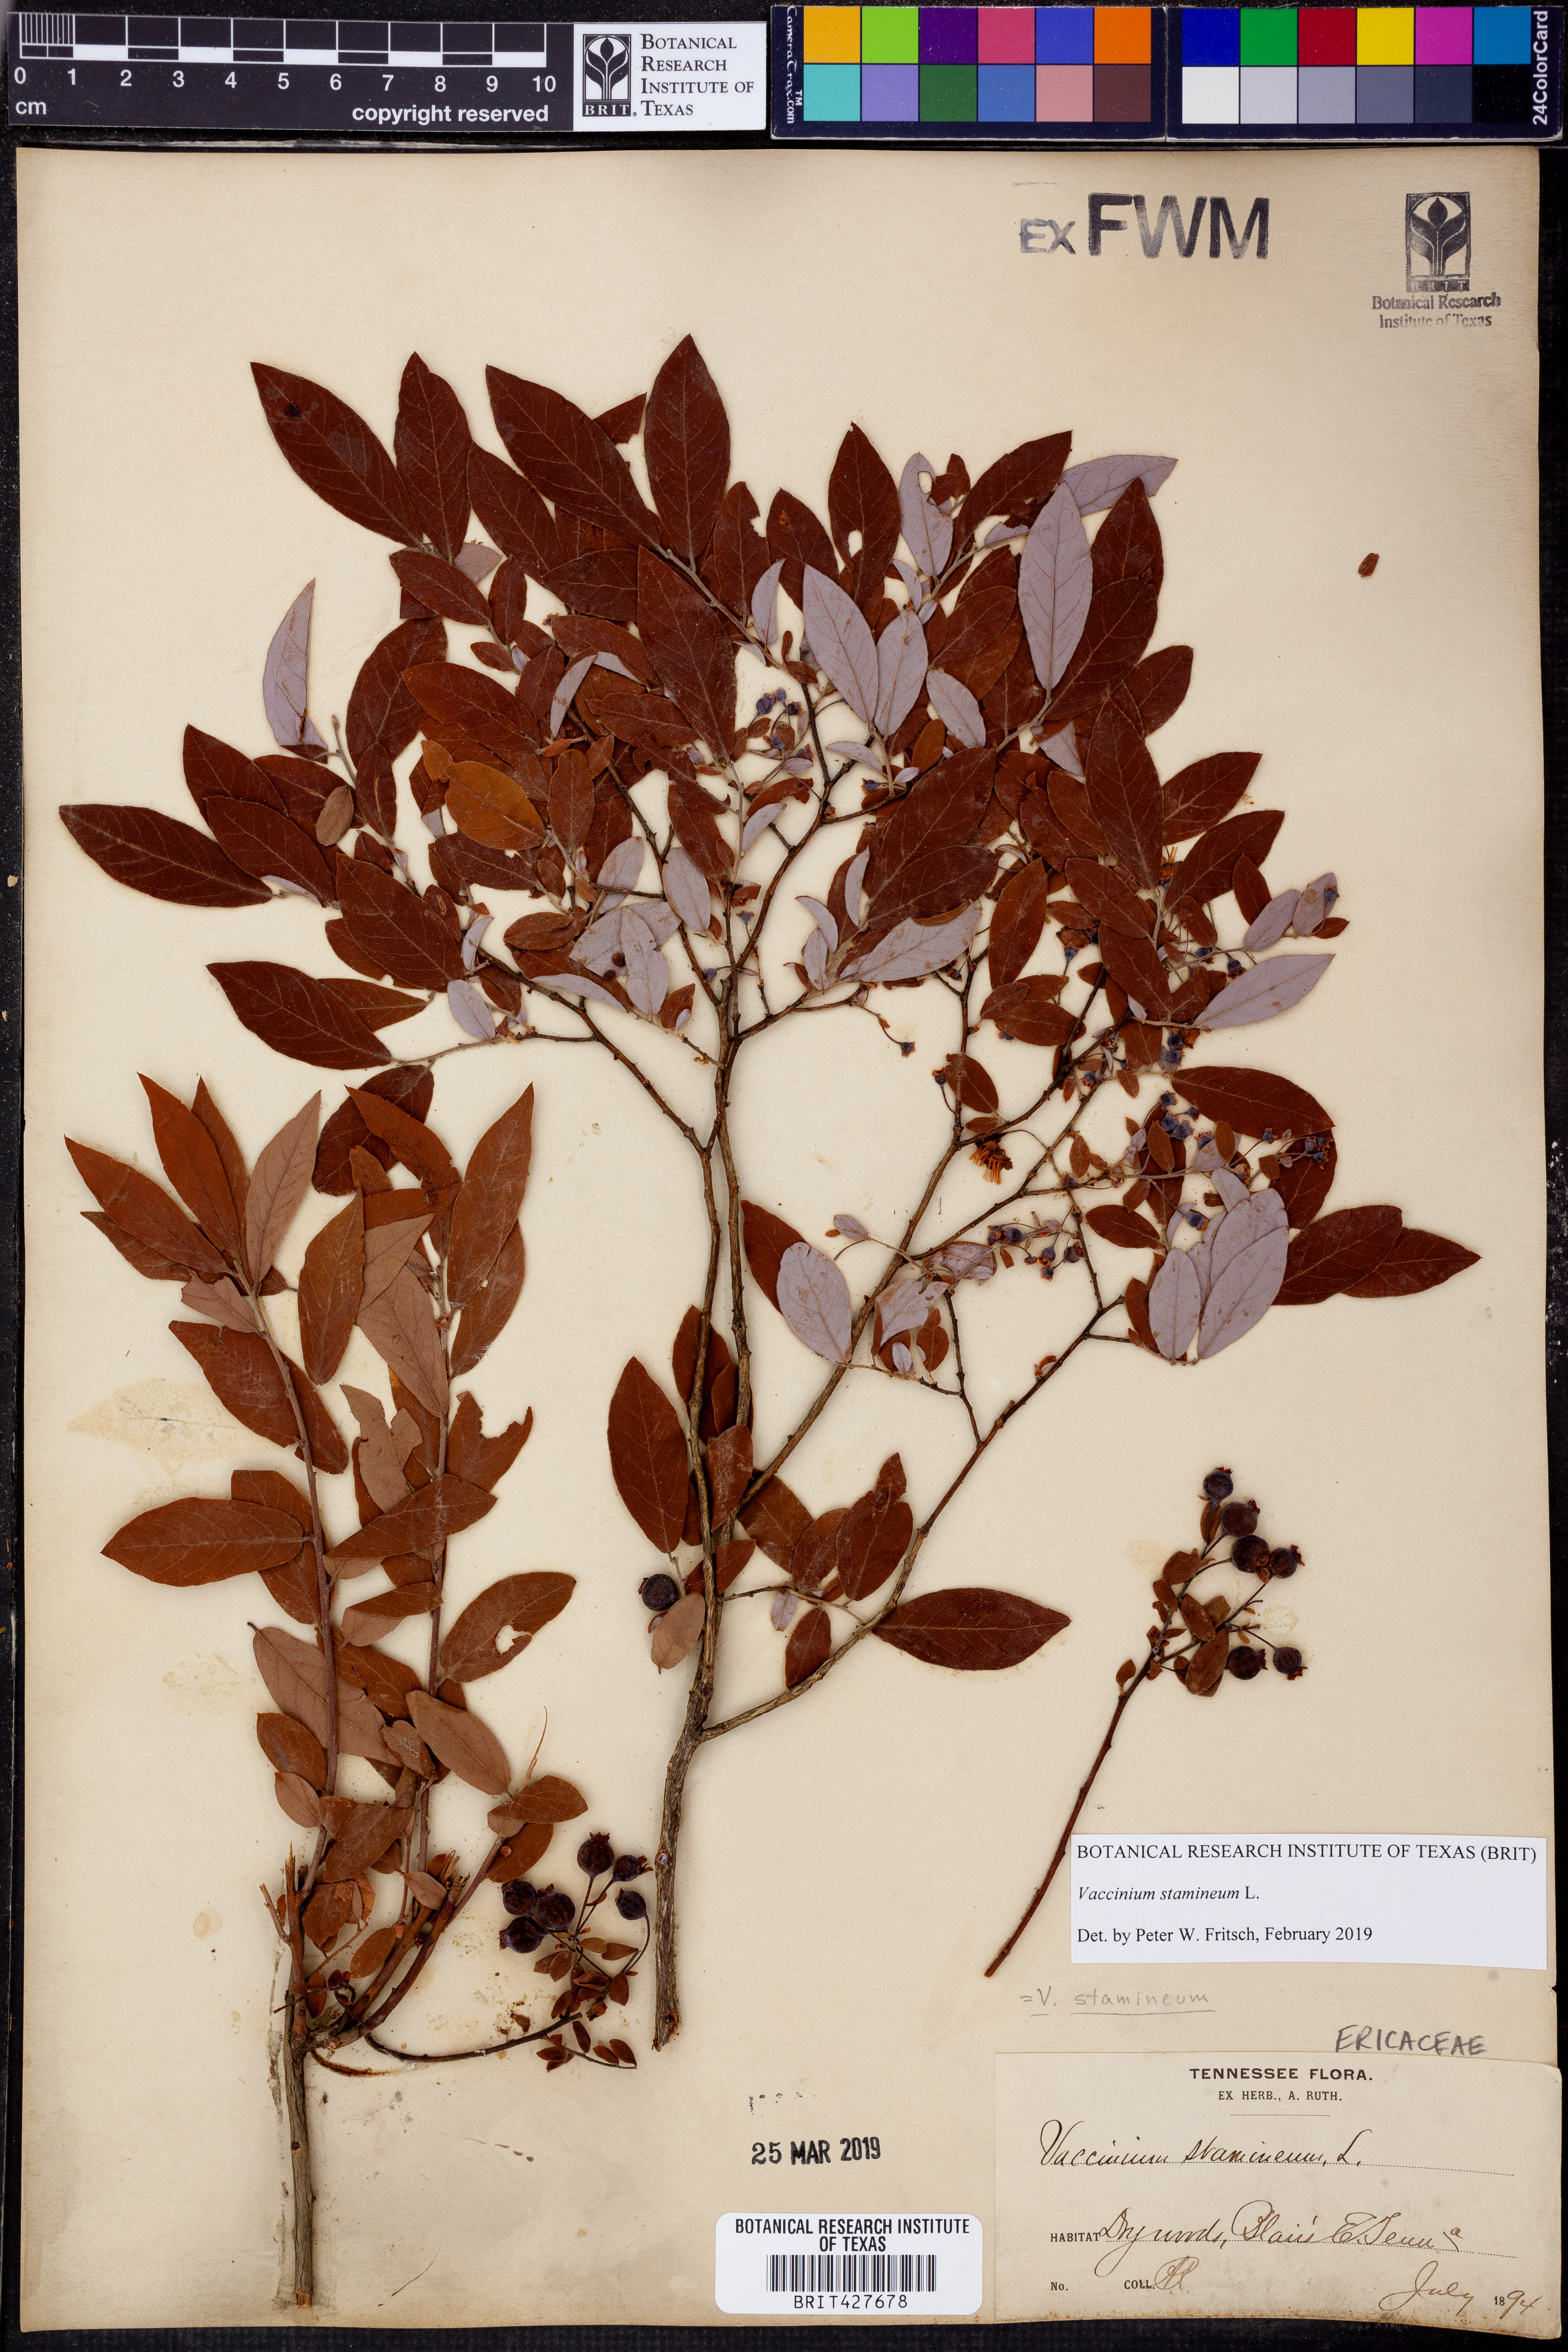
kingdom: Plantae
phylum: Tracheophyta
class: Magnoliopsida
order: Ericales
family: Ericaceae
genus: Vaccinium
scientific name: Vaccinium stamineum
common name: Deerberry
